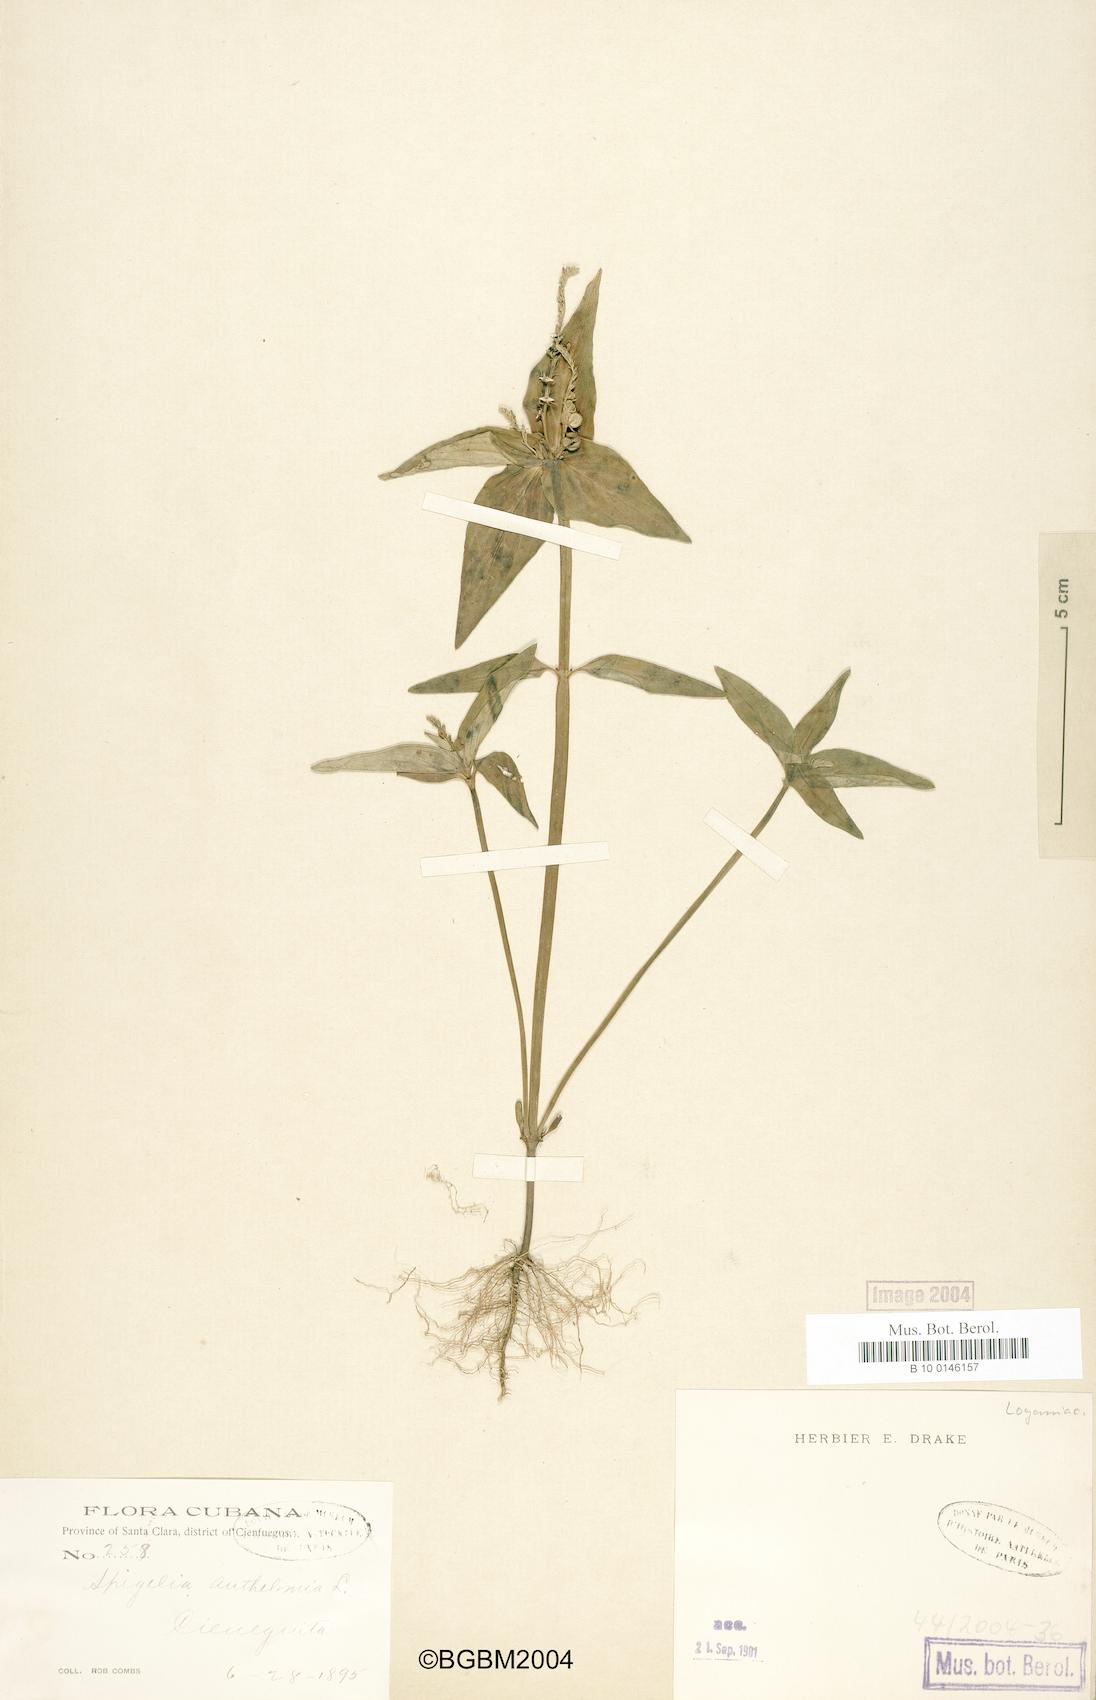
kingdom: Plantae
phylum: Tracheophyta
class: Magnoliopsida
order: Gentianales
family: Loganiaceae
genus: Spigelia
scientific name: Spigelia anthelmia
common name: West indian-pink
